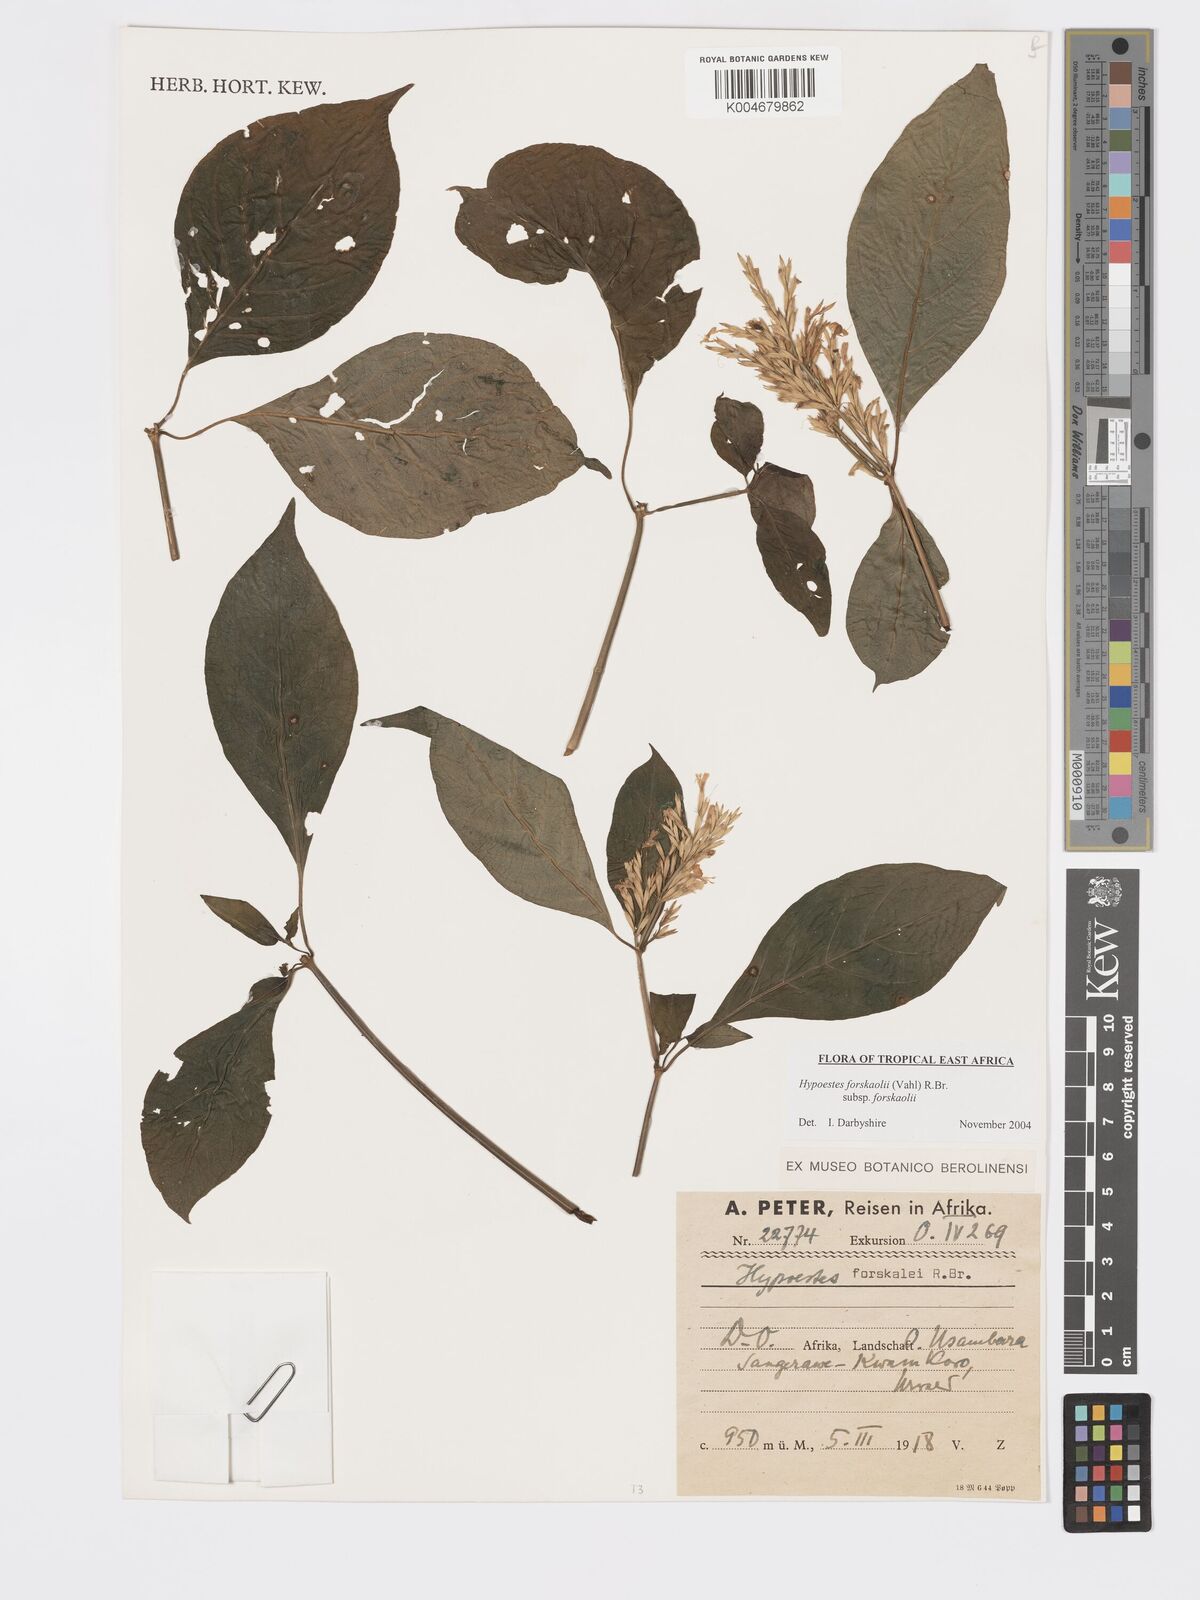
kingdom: Plantae
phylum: Tracheophyta
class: Magnoliopsida
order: Lamiales
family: Acanthaceae
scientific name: Acanthaceae
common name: Acanthaceae
